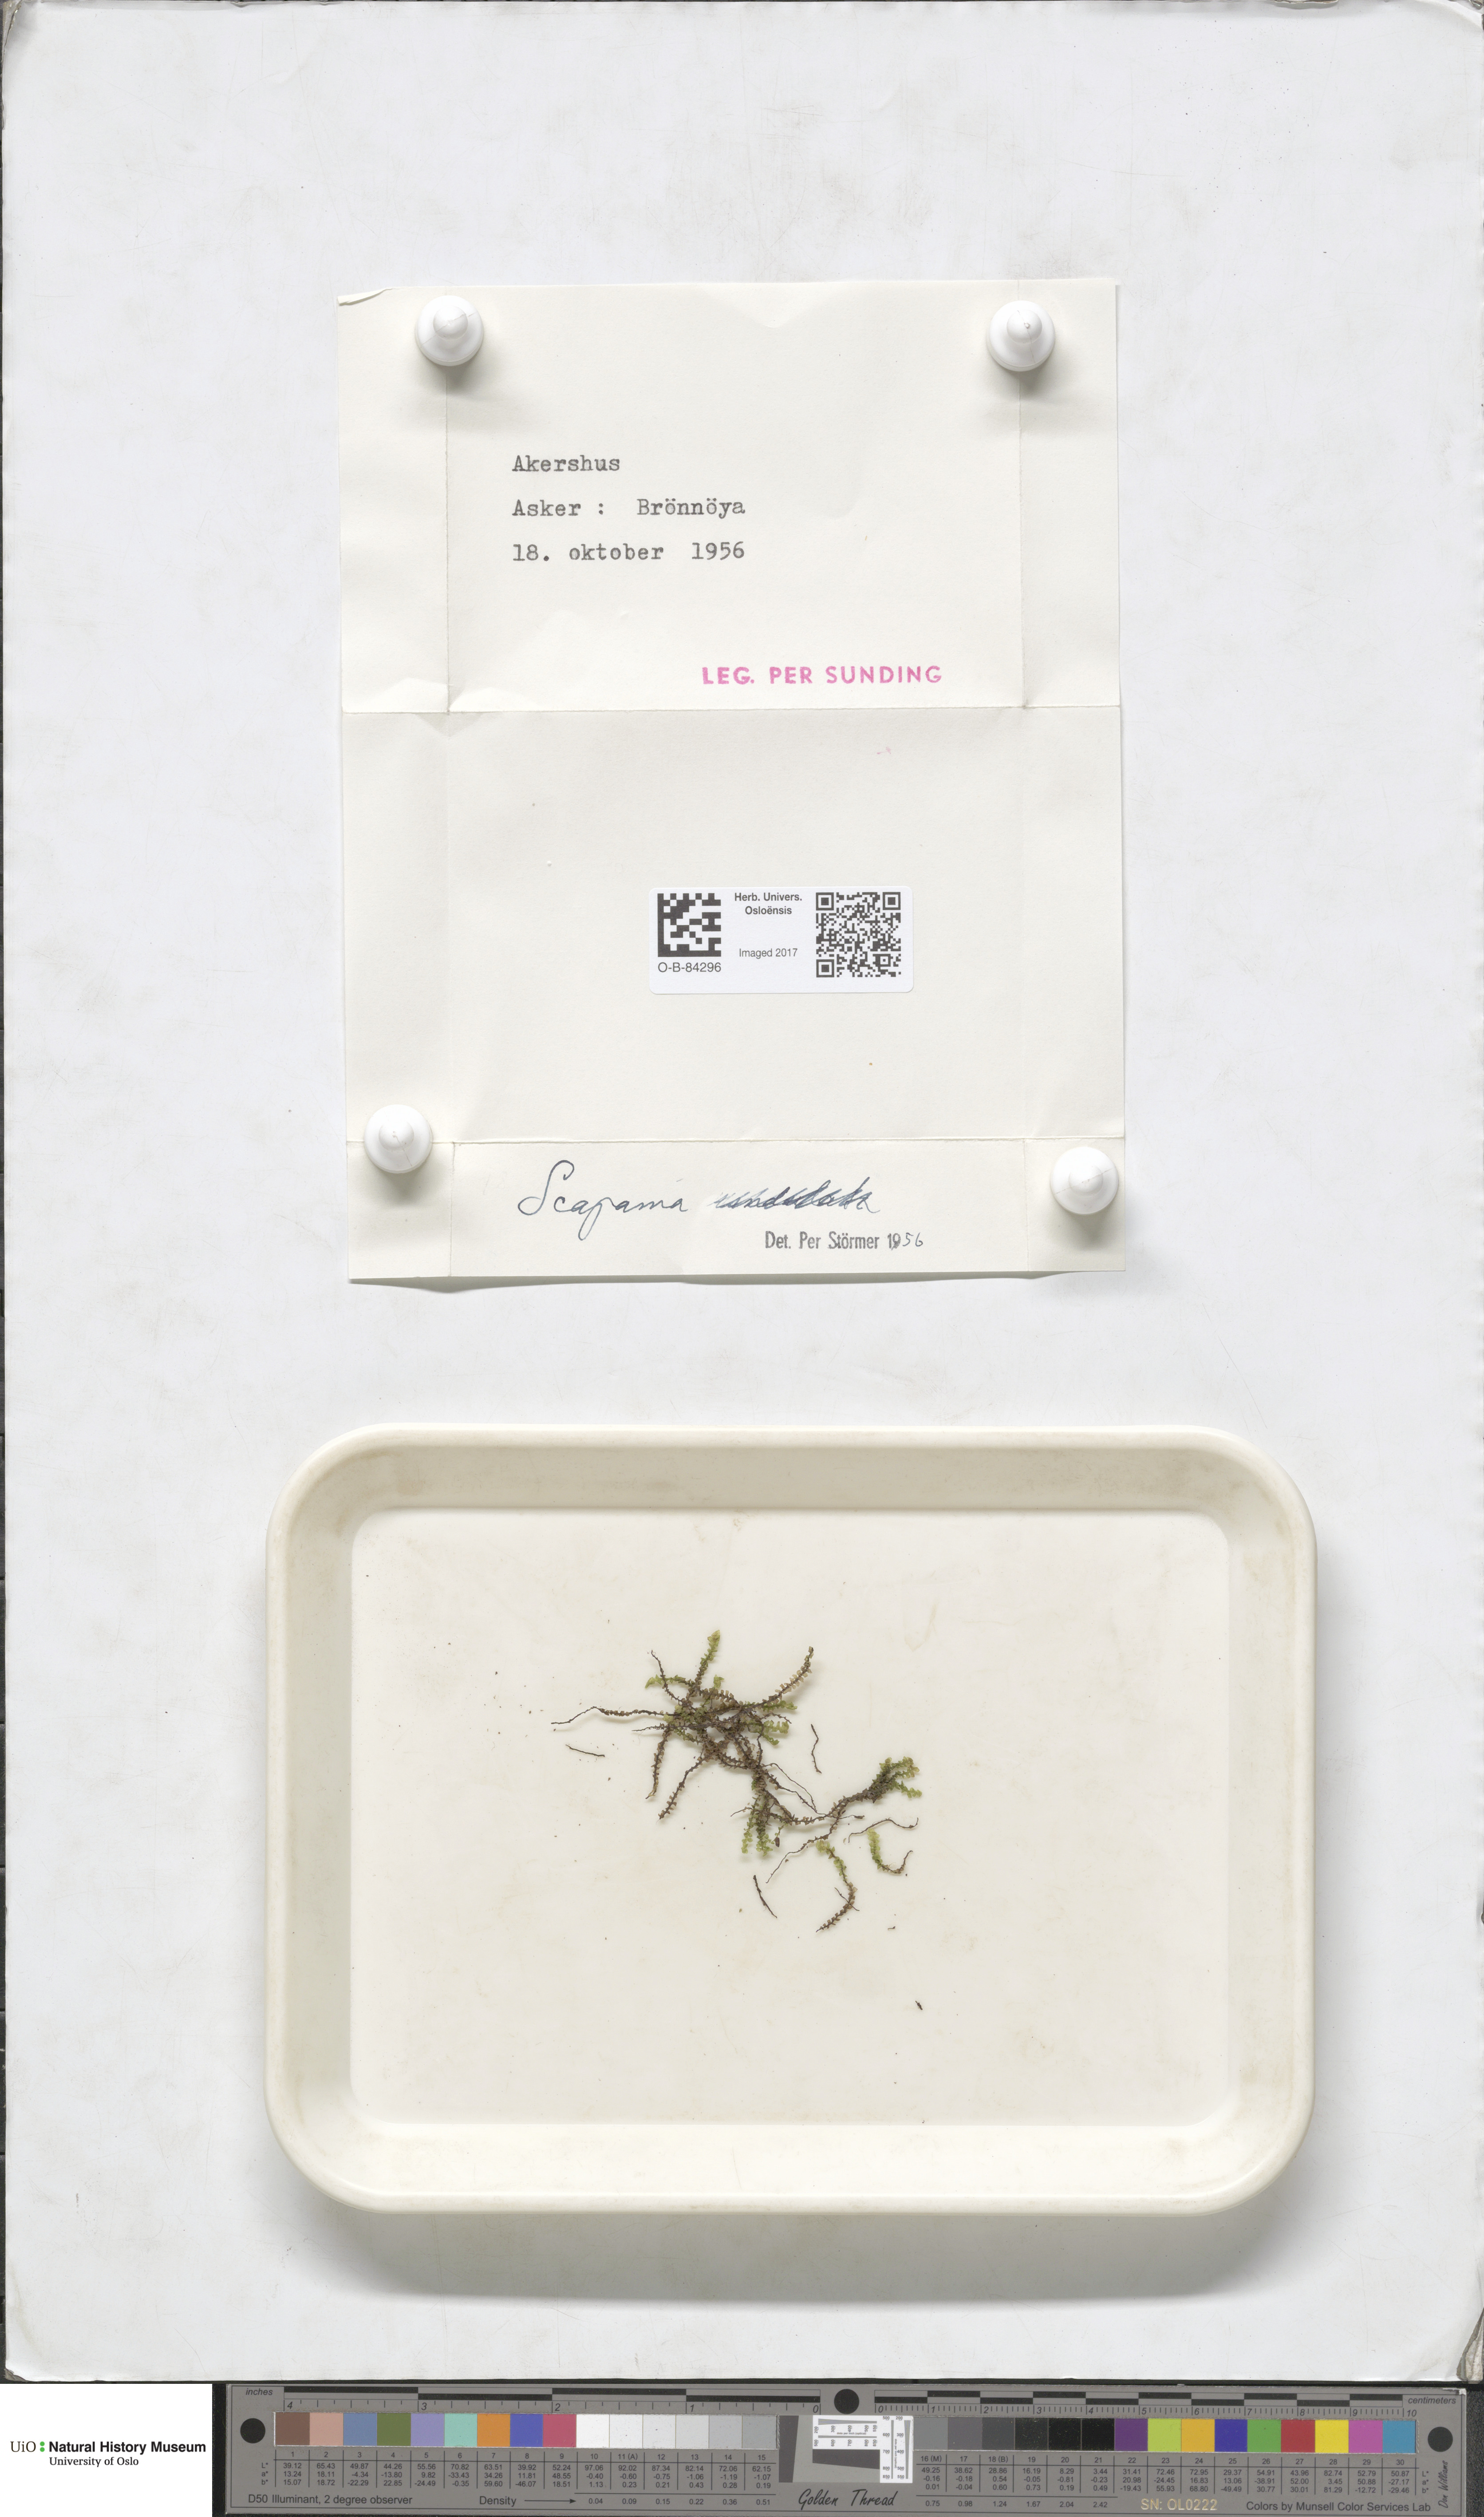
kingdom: Plantae
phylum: Marchantiophyta
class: Jungermanniopsida
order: Jungermanniales
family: Scapaniaceae
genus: Scapania
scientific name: Scapania
